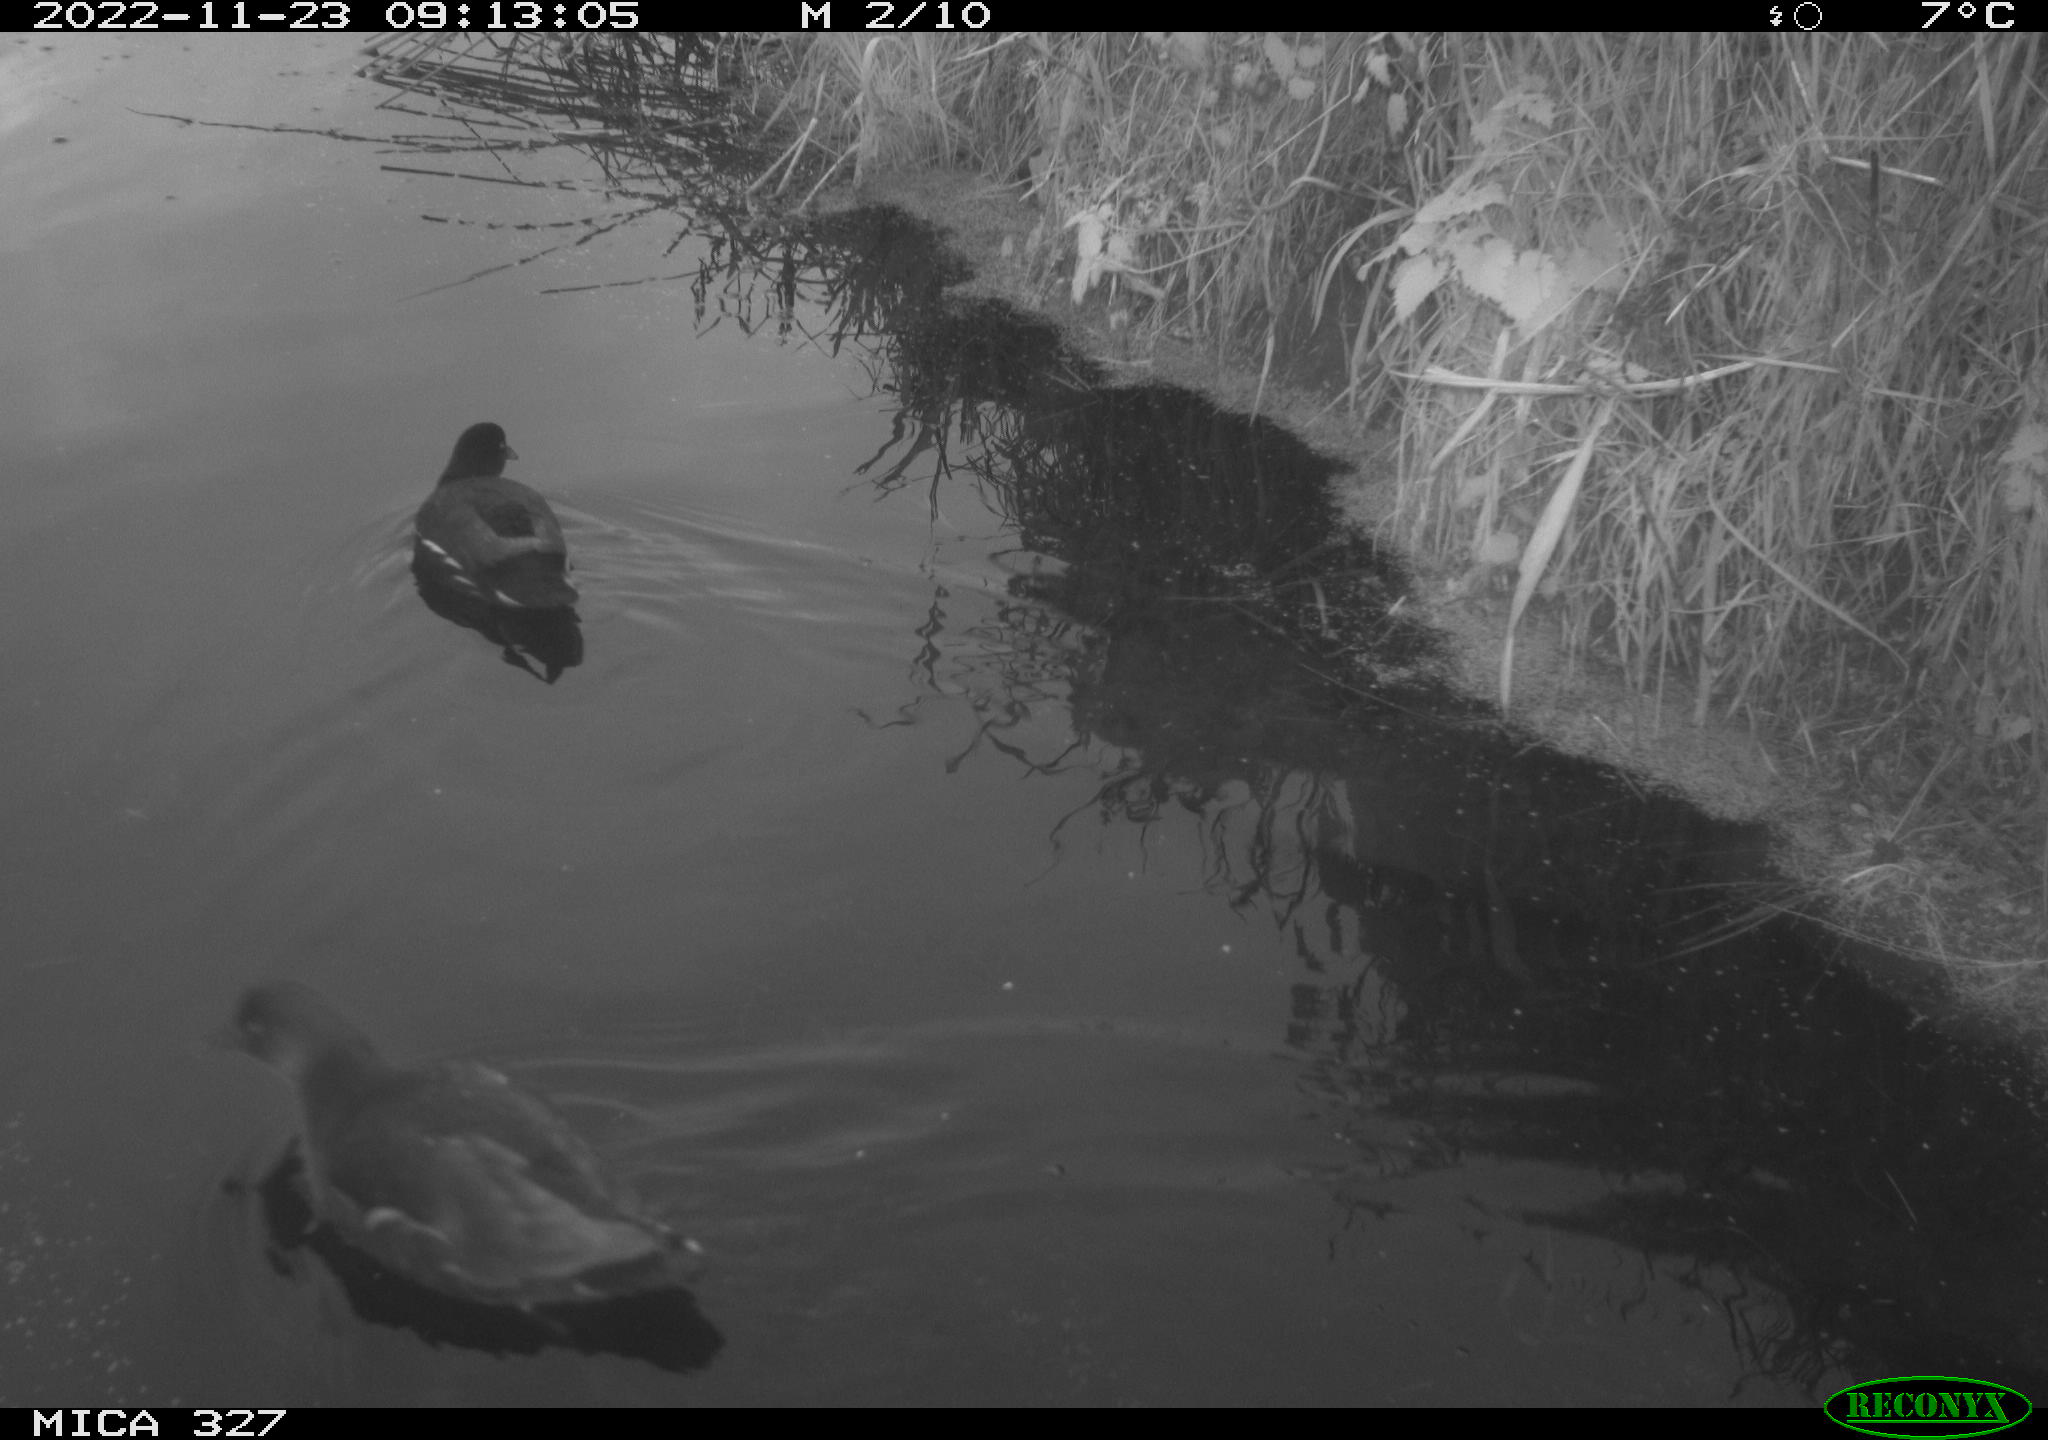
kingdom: Animalia
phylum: Chordata
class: Aves
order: Gruiformes
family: Rallidae
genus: Gallinula
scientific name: Gallinula chloropus
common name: Common moorhen
